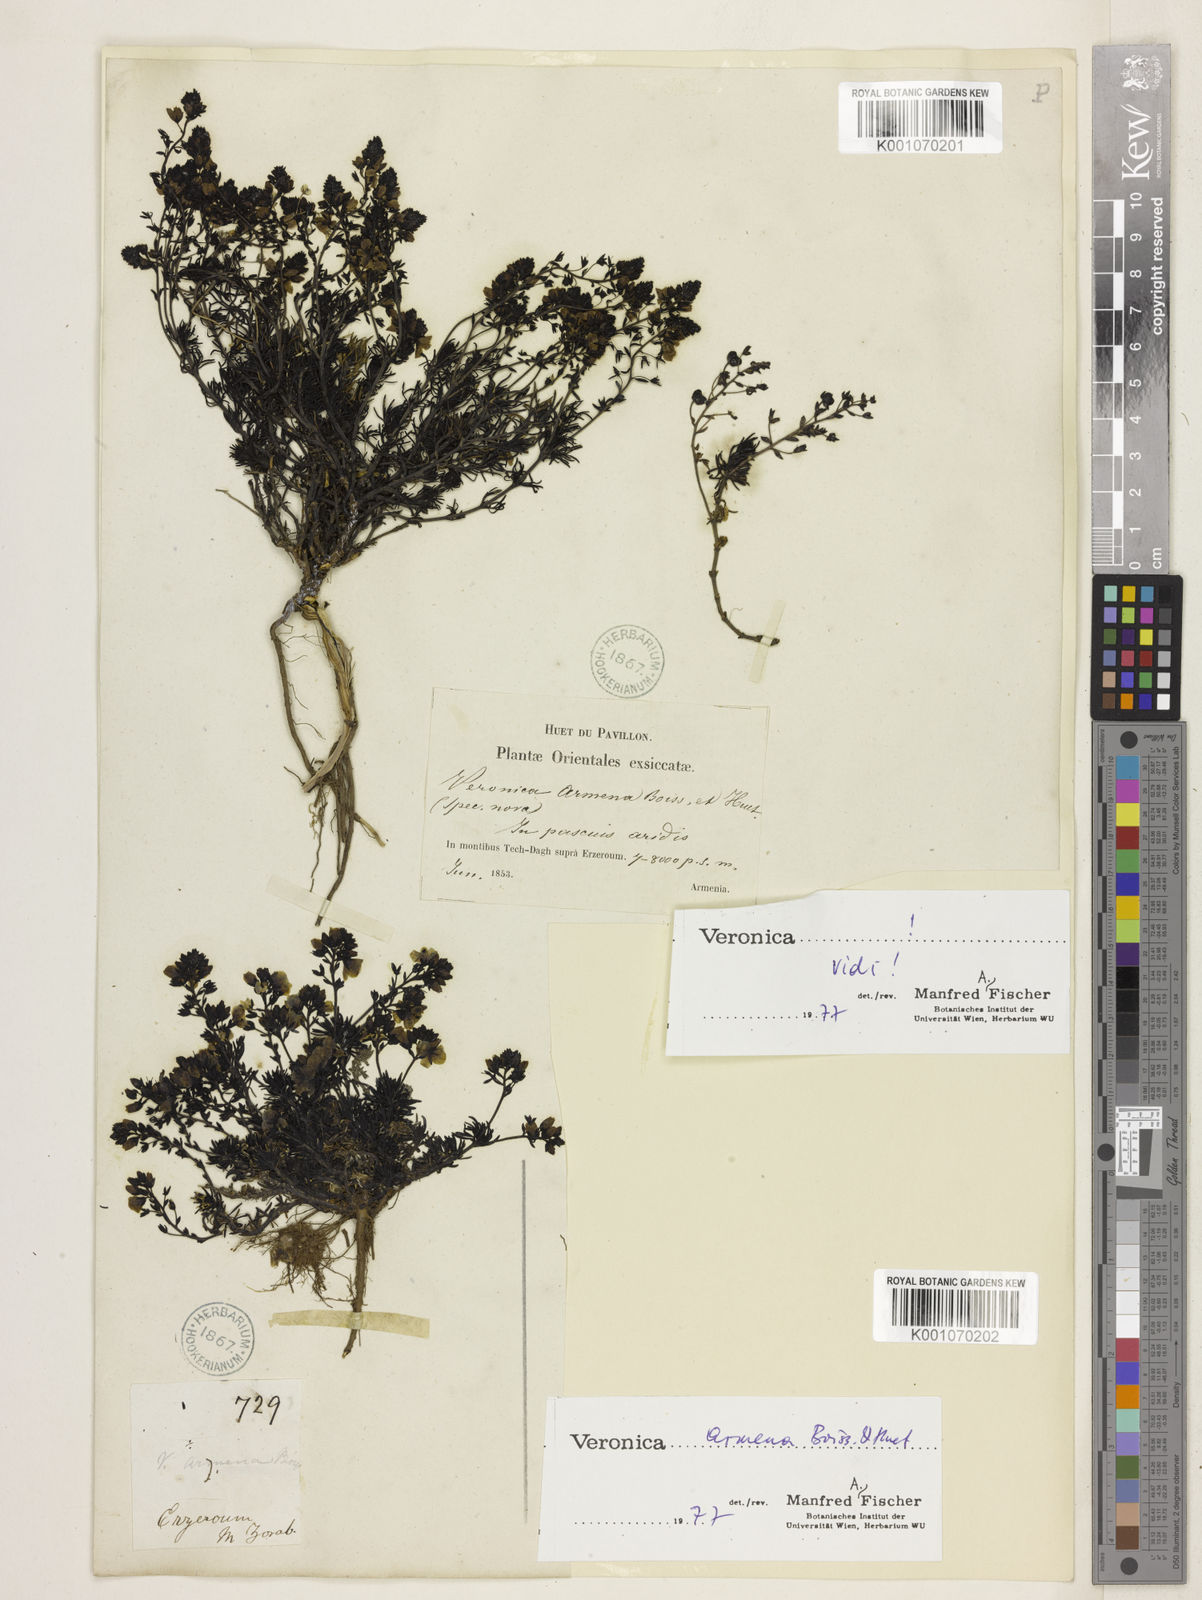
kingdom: Plantae
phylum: Tracheophyta
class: Magnoliopsida
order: Lamiales
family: Plantaginaceae
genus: Veronica
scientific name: Veronica armena
